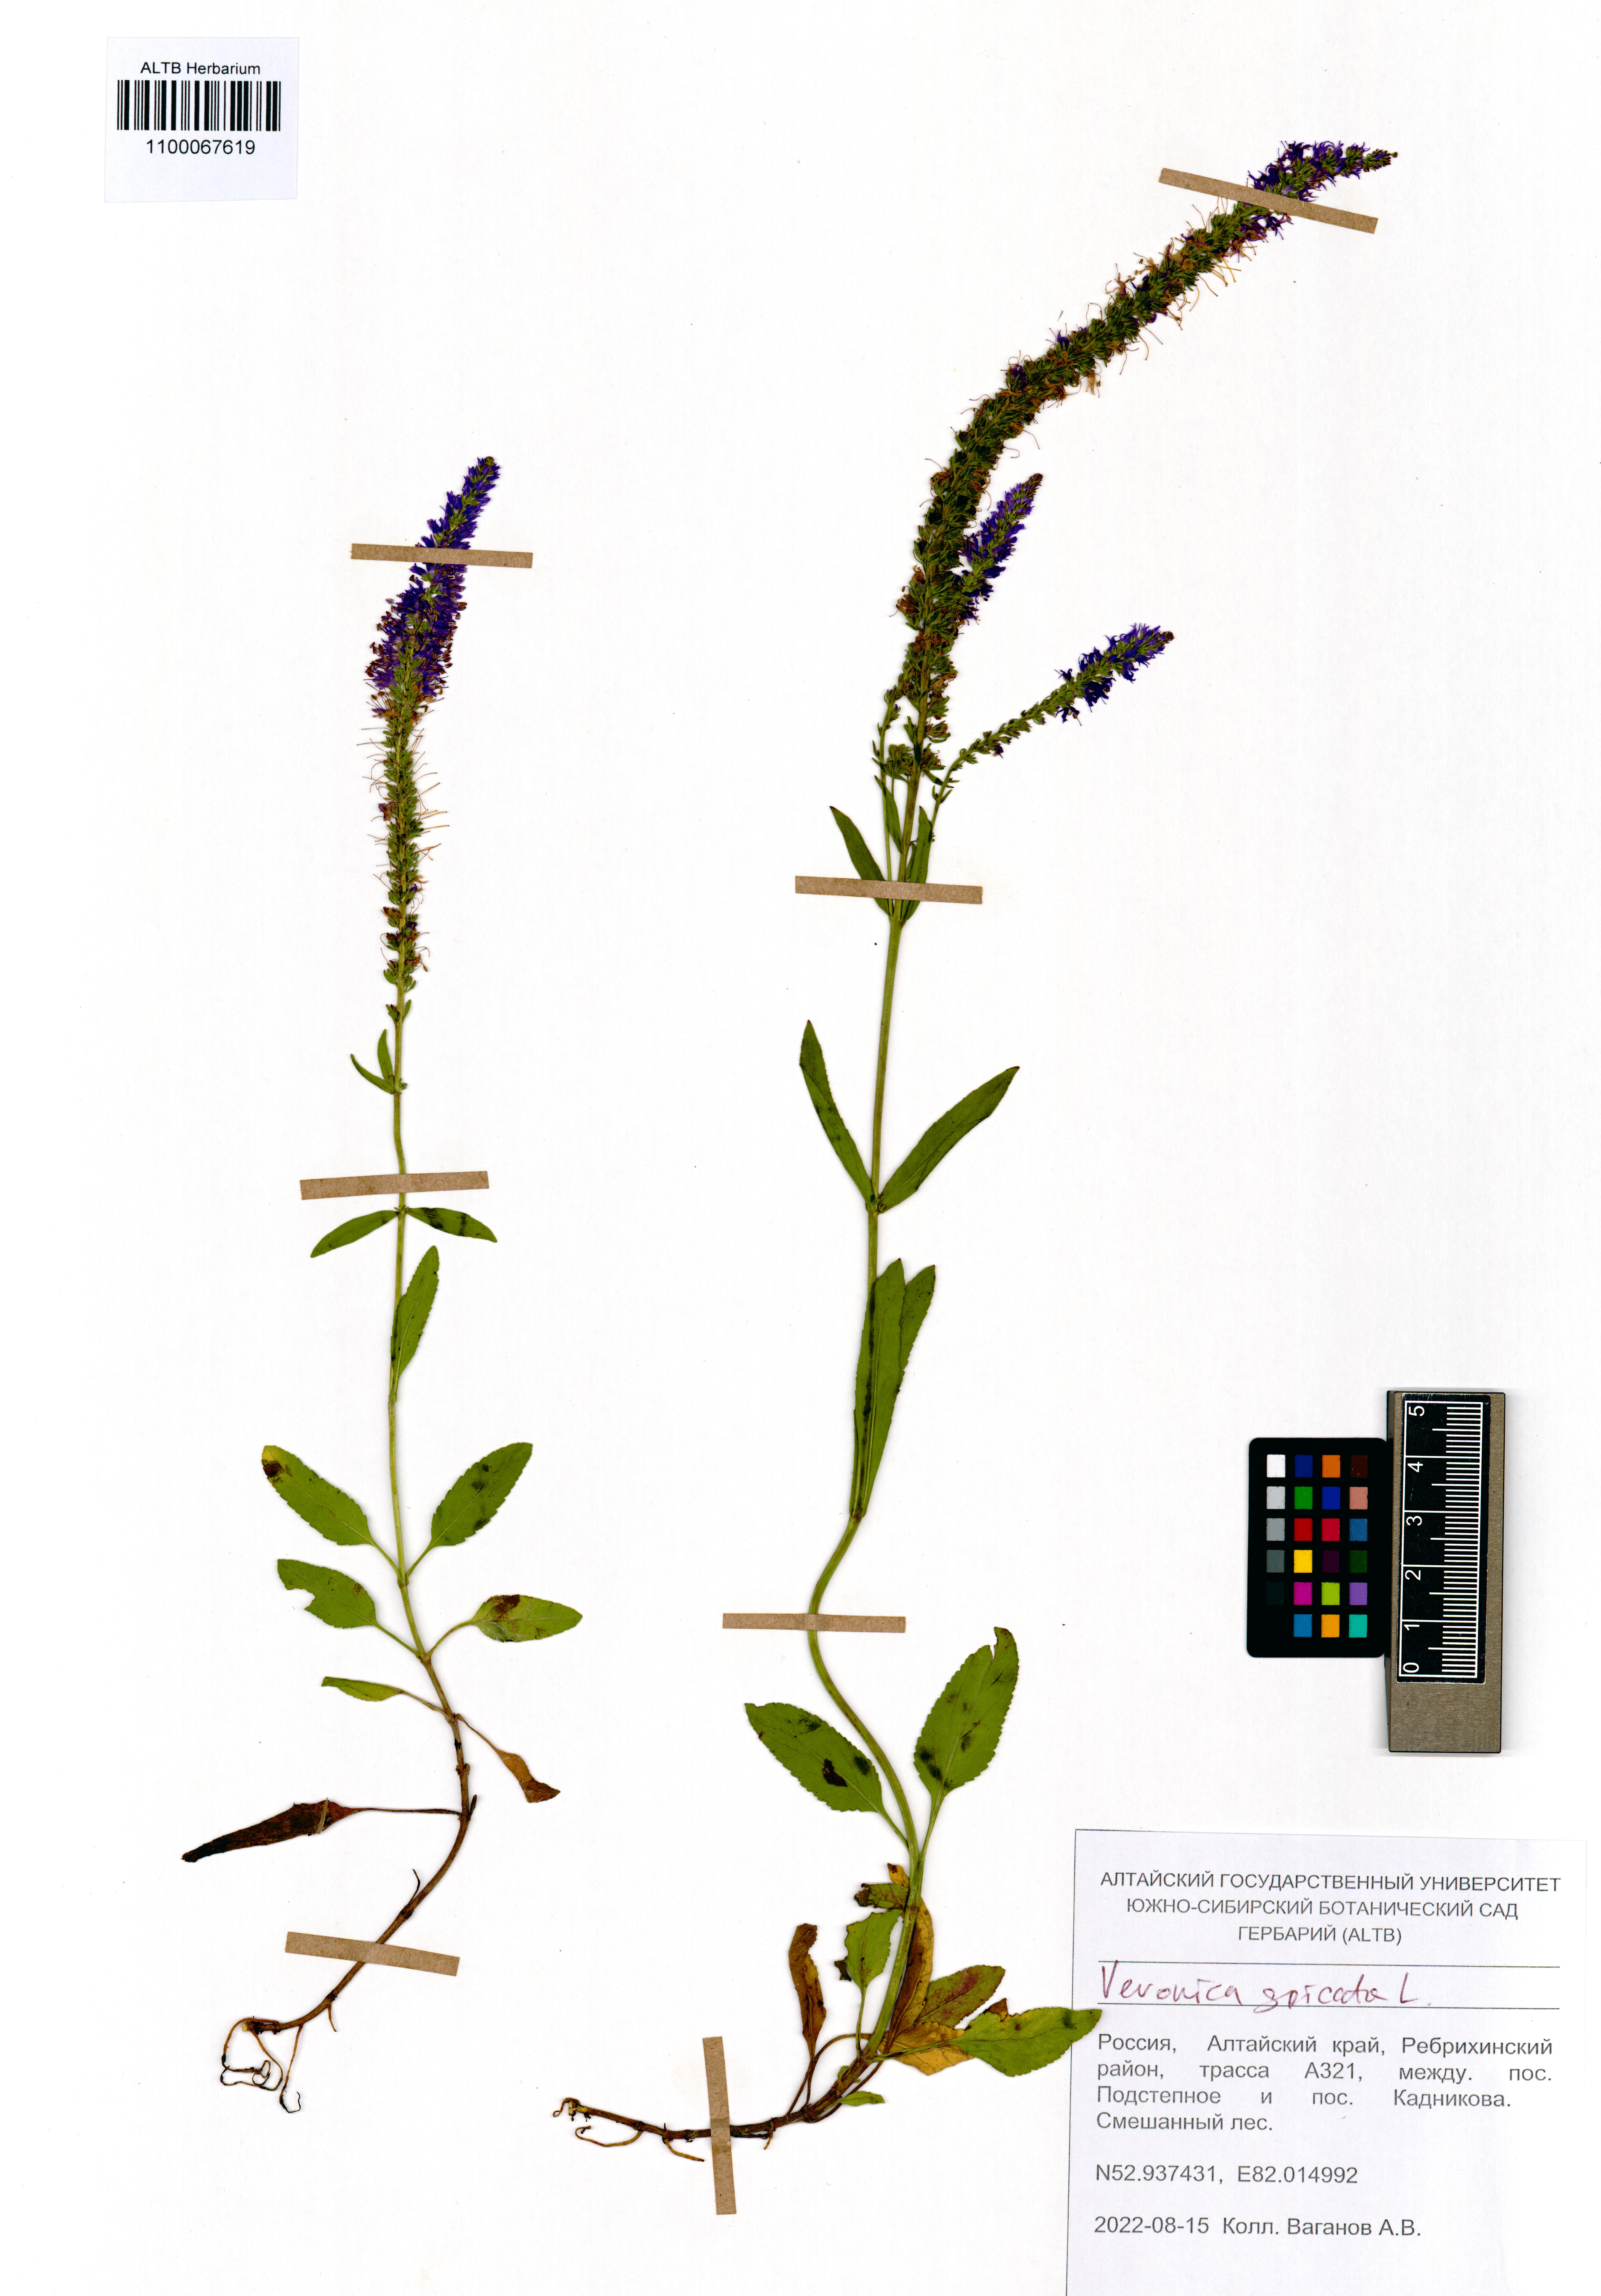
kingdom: Plantae
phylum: Tracheophyta
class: Magnoliopsida
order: Lamiales
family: Plantaginaceae
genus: Veronica
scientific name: Veronica spicata
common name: Spiked speedwell
